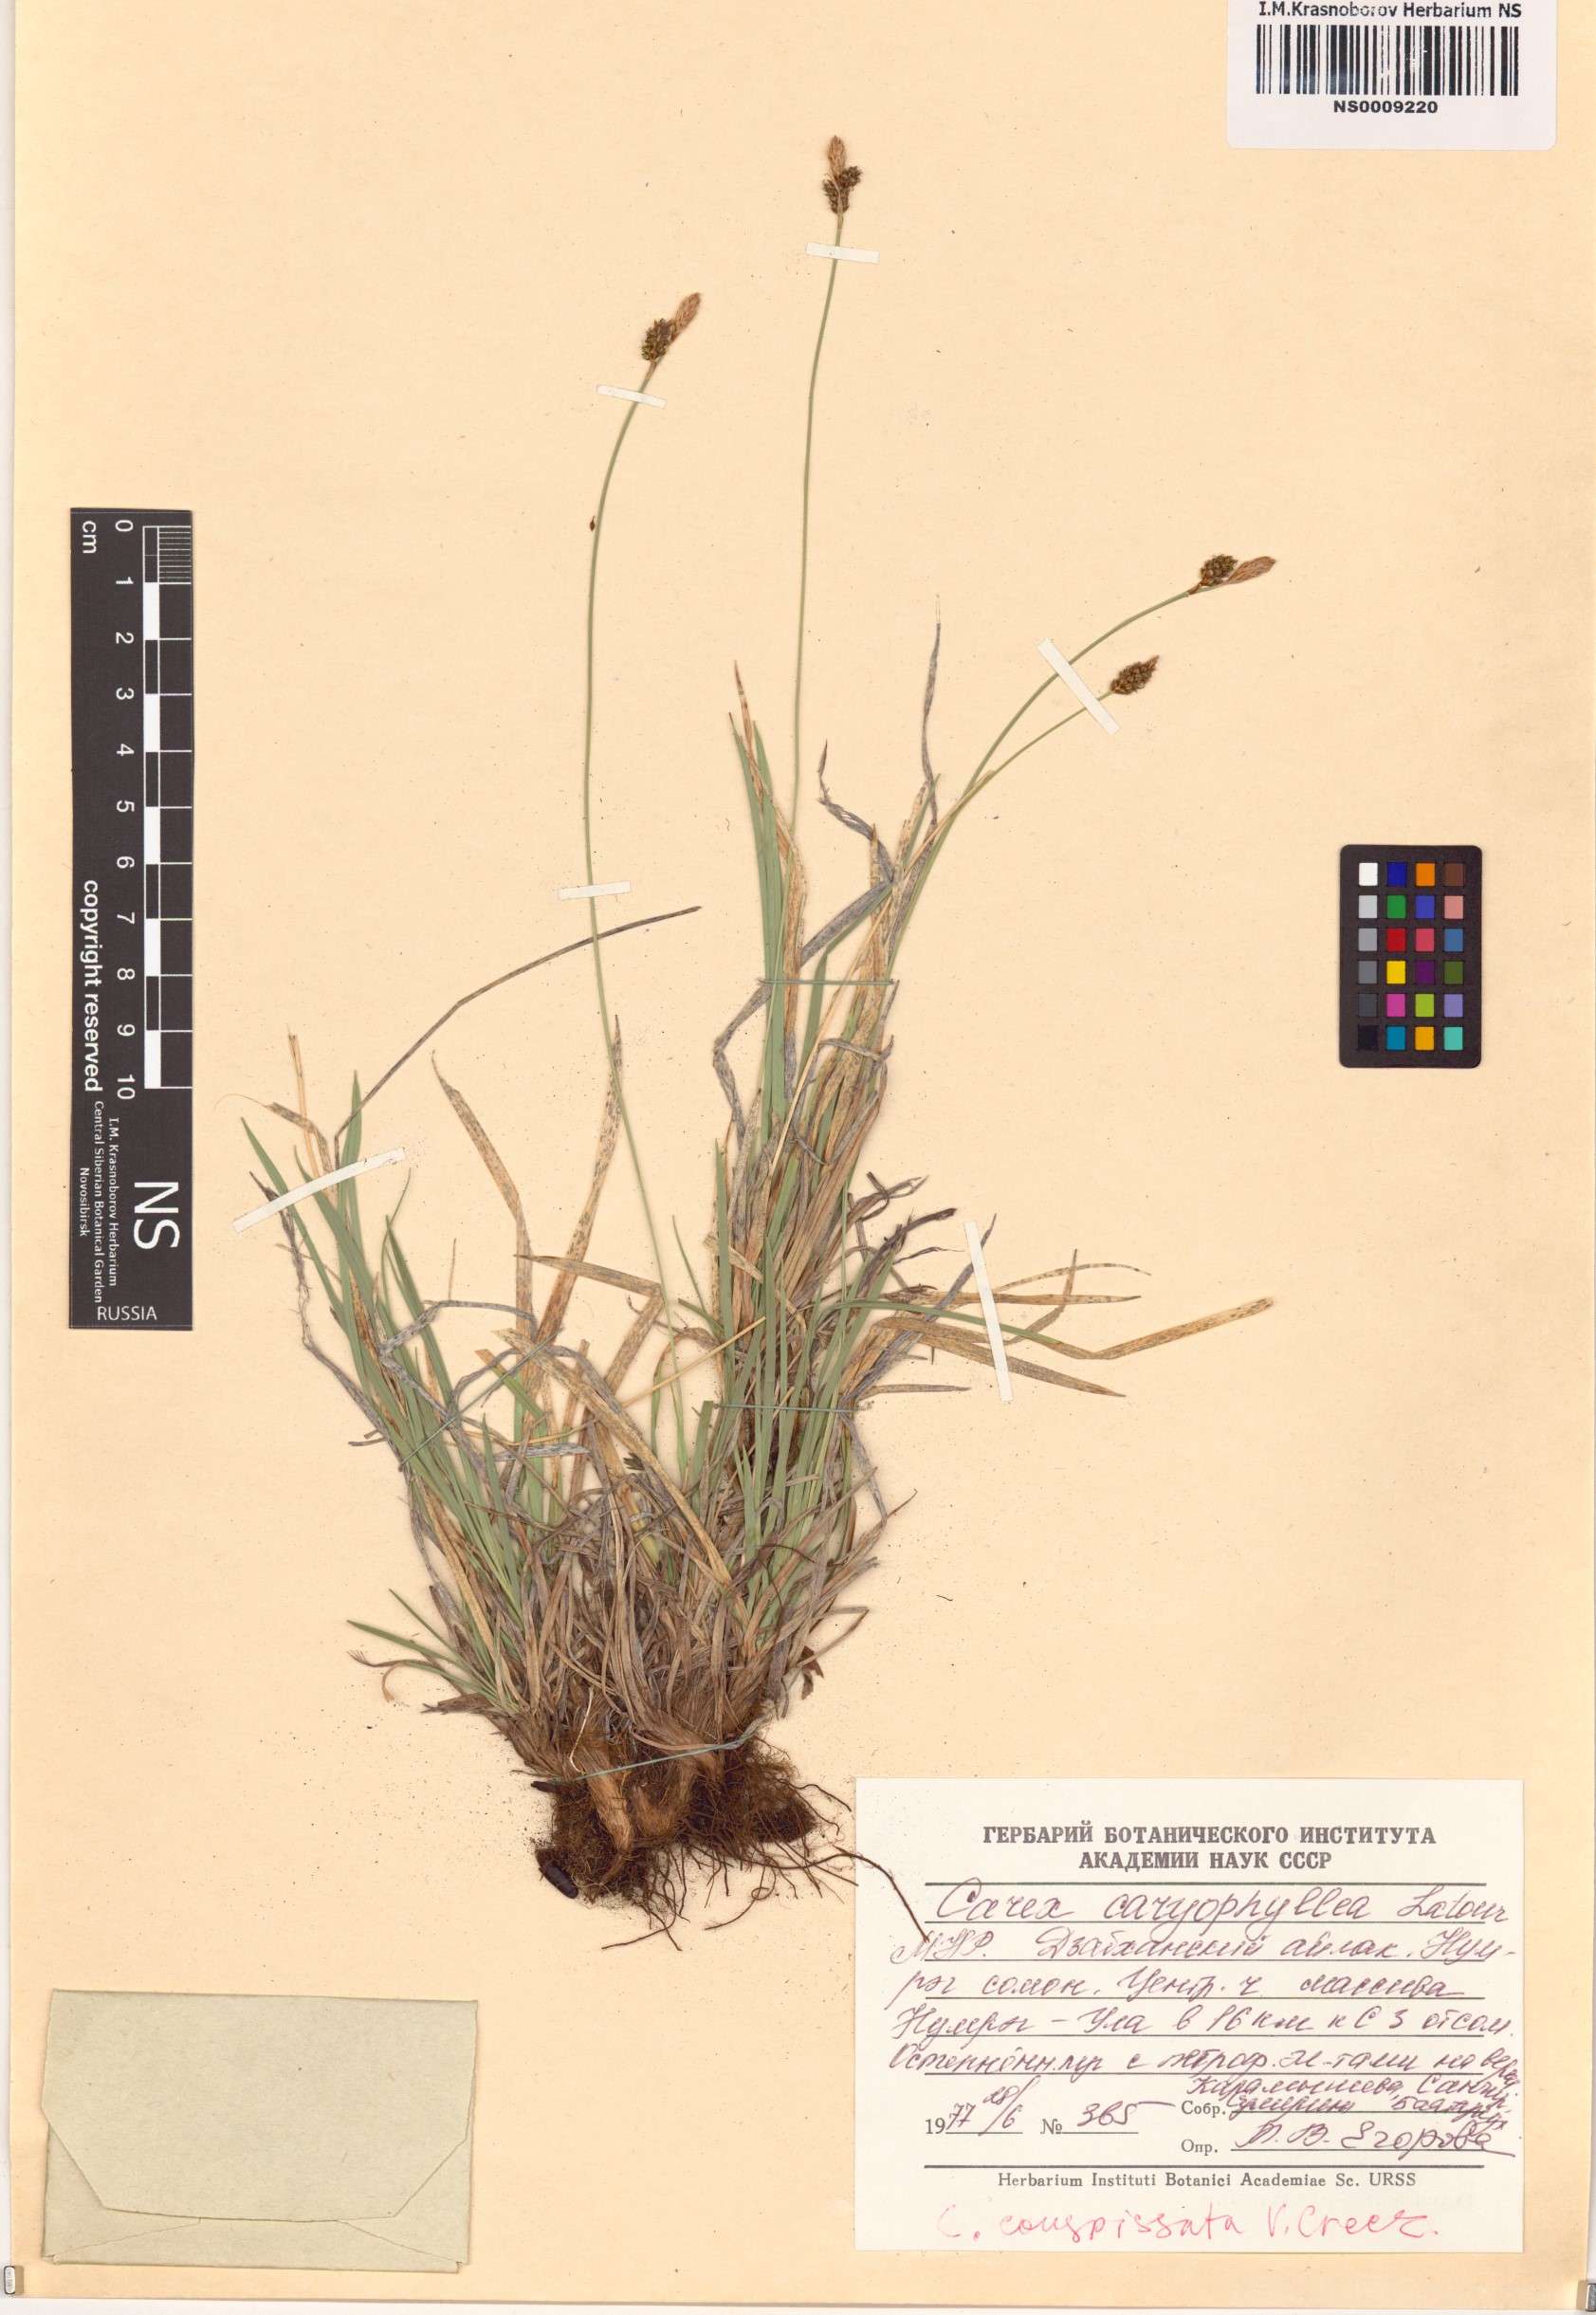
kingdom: Plantae
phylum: Tracheophyta
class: Liliopsida
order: Poales
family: Cyperaceae
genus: Carex
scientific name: Carex conspissata
